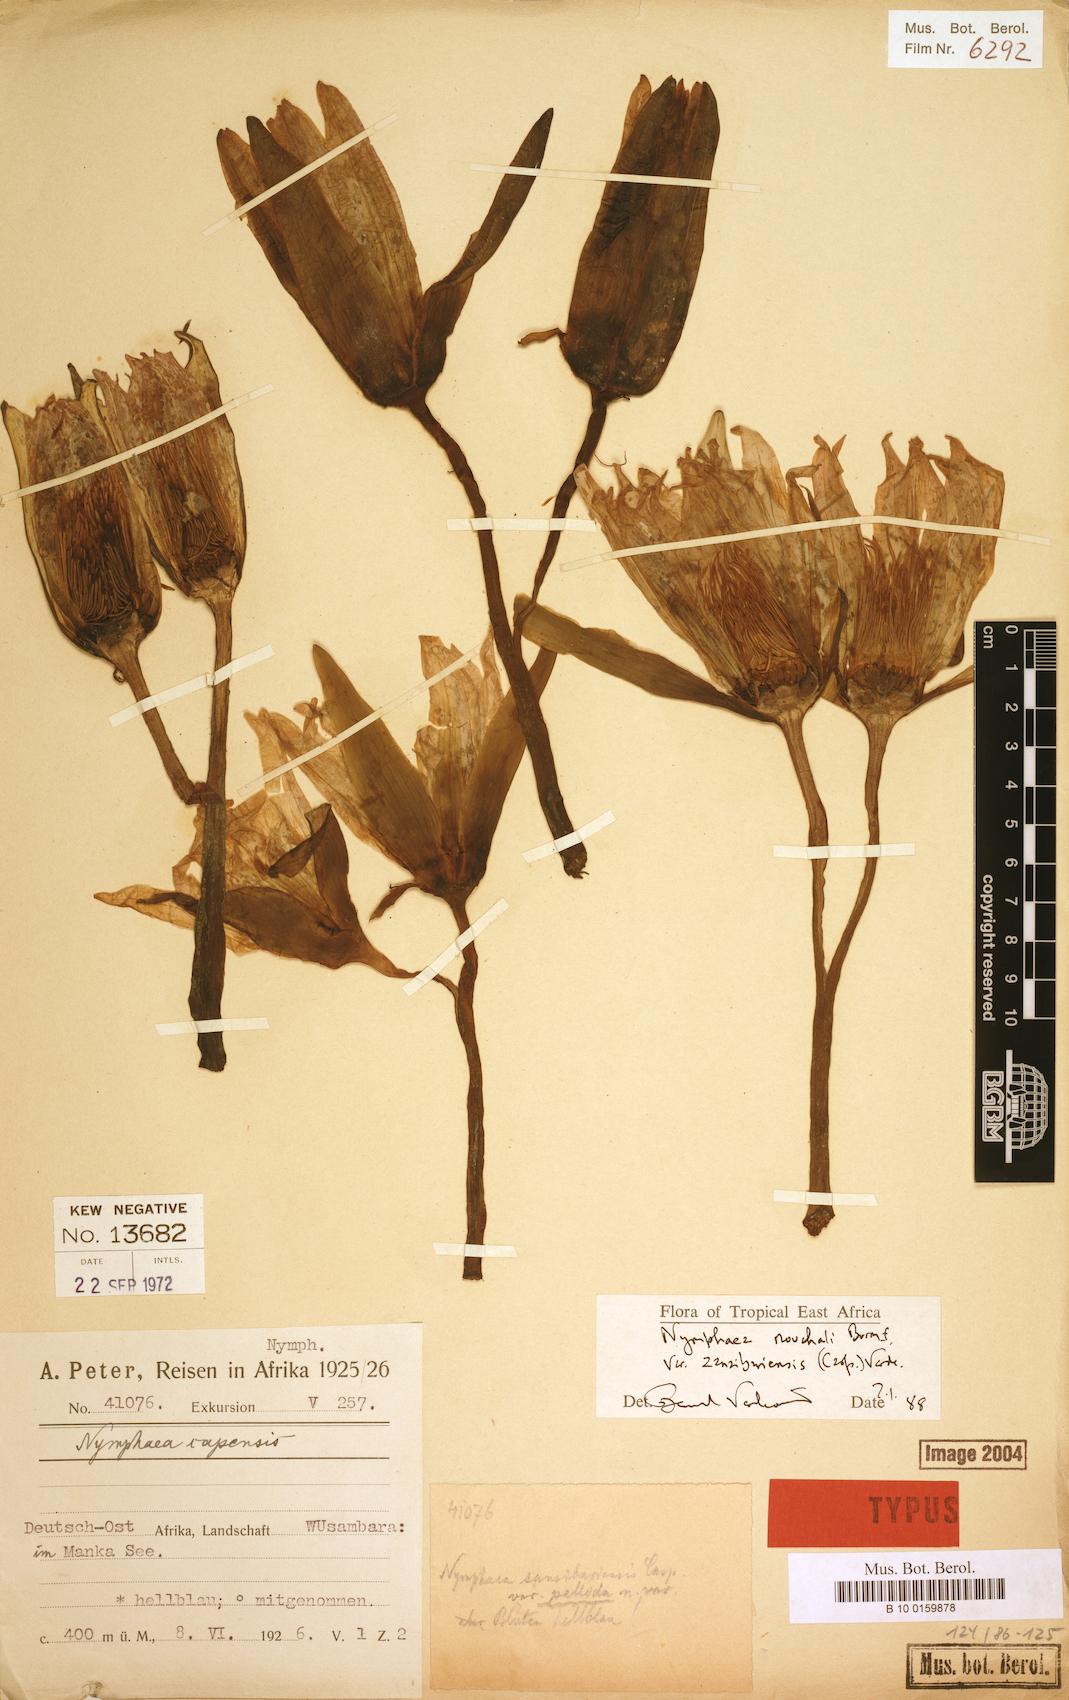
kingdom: Plantae
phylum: Tracheophyta
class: Magnoliopsida
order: Nymphaeales
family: Nymphaeaceae
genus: Nymphaea
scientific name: Nymphaea nouchali
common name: Blue lotus
